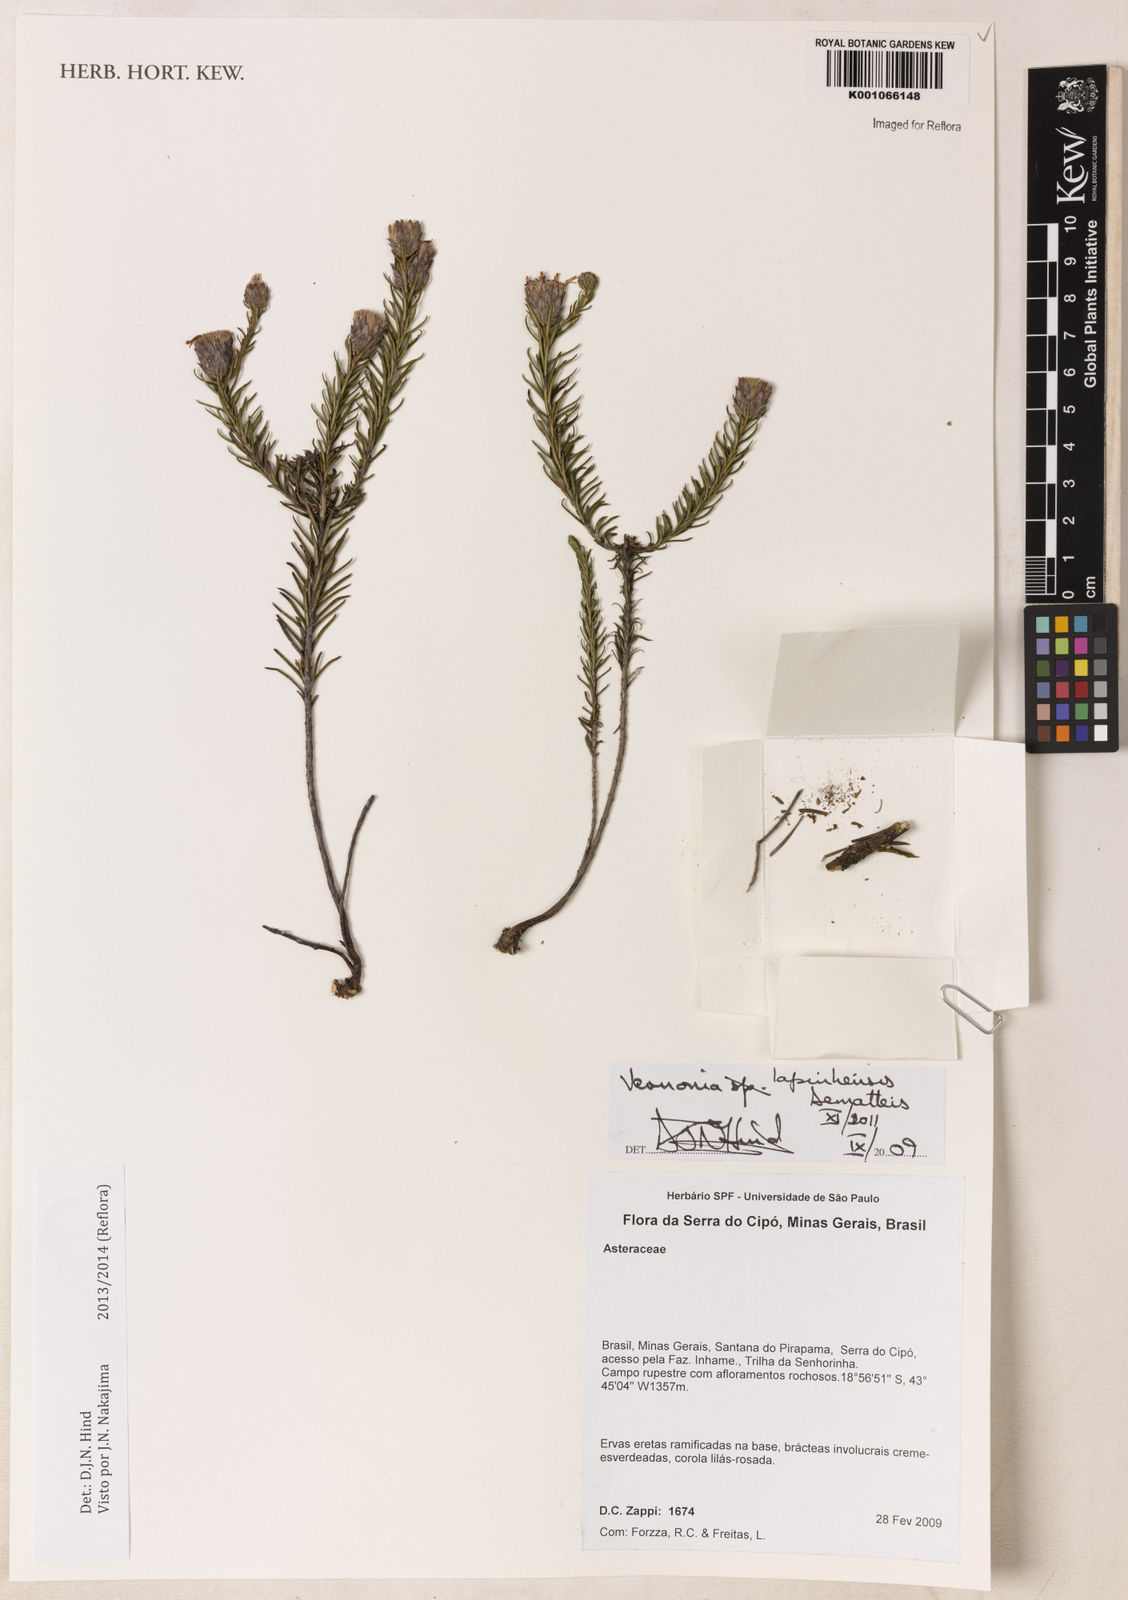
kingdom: Plantae
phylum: Tracheophyta
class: Magnoliopsida
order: Asterales
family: Asteraceae
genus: Vernonia
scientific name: Vernonia
